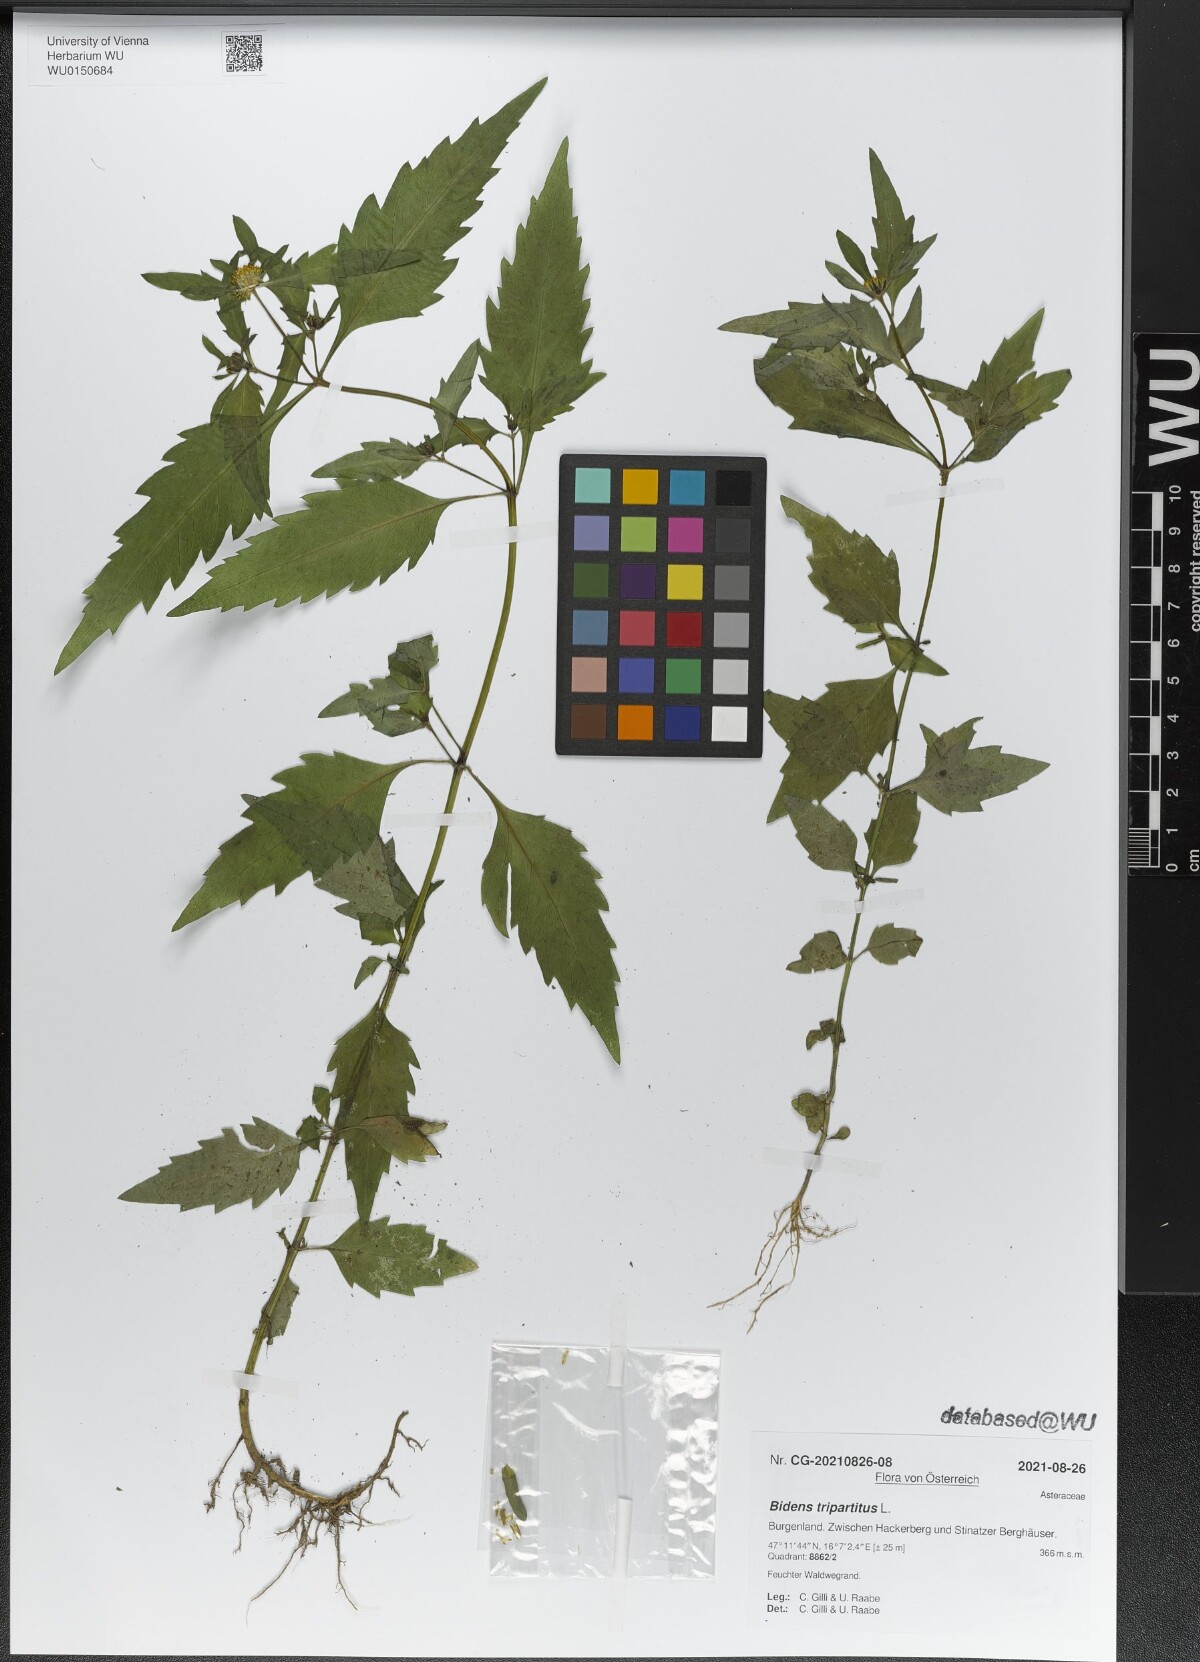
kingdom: Plantae
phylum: Tracheophyta
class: Magnoliopsida
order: Asterales
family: Asteraceae
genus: Bidens
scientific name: Bidens tripartita
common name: Trifid bur-marigold
